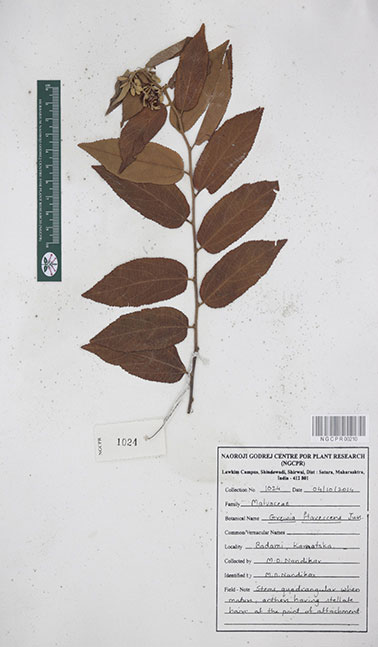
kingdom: Plantae
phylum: Tracheophyta
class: Magnoliopsida
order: Malvales
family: Malvaceae
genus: Grewia
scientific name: Grewia flavescens
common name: Sandpaper raisin
